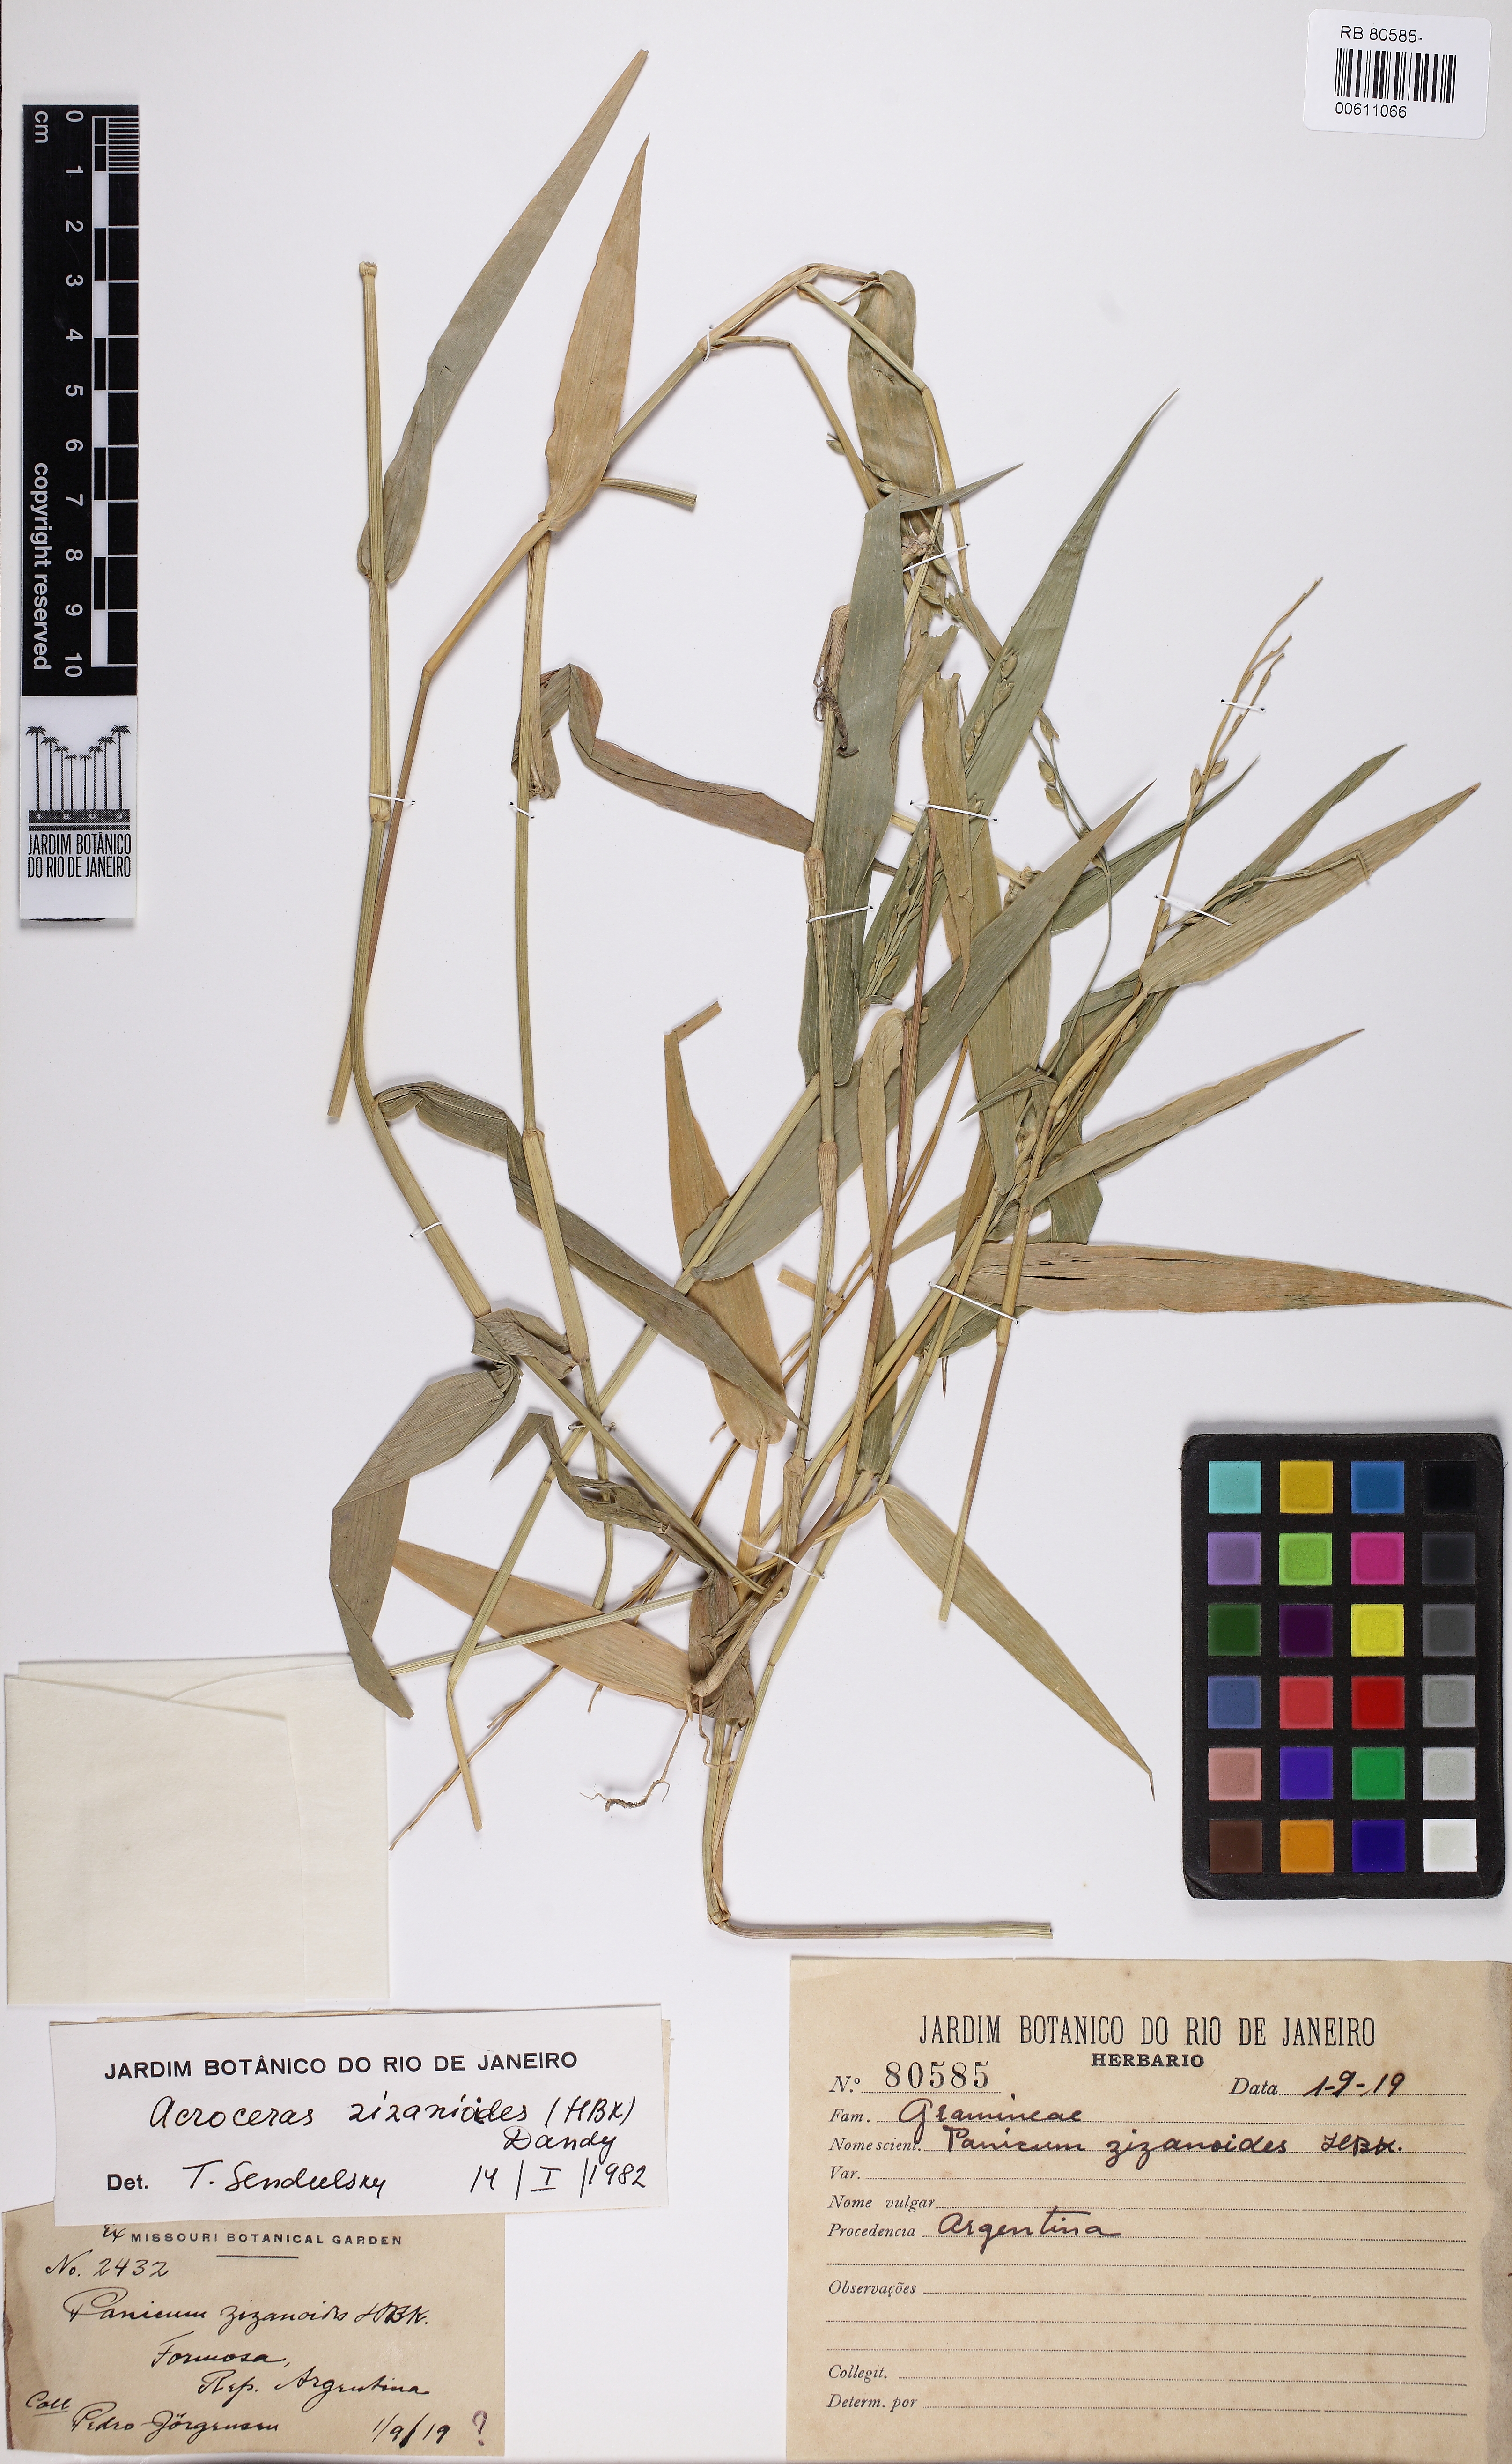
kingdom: Plantae
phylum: Tracheophyta
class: Liliopsida
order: Poales
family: Poaceae
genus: Acroceras
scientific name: Acroceras zizanioides
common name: Oat grass
